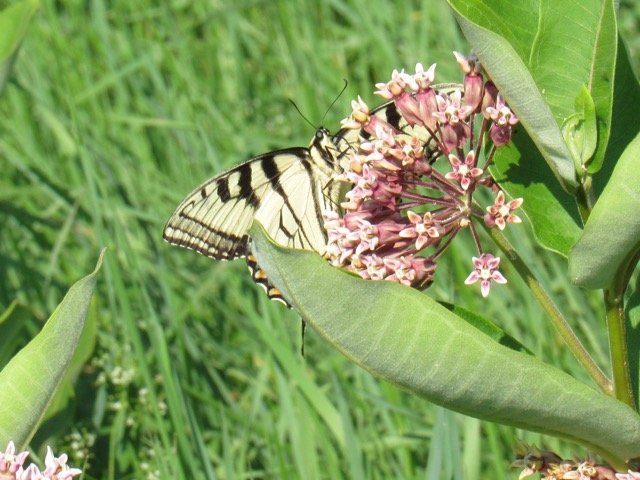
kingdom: Animalia
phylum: Arthropoda
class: Insecta
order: Lepidoptera
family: Papilionidae
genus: Pterourus
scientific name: Pterourus
